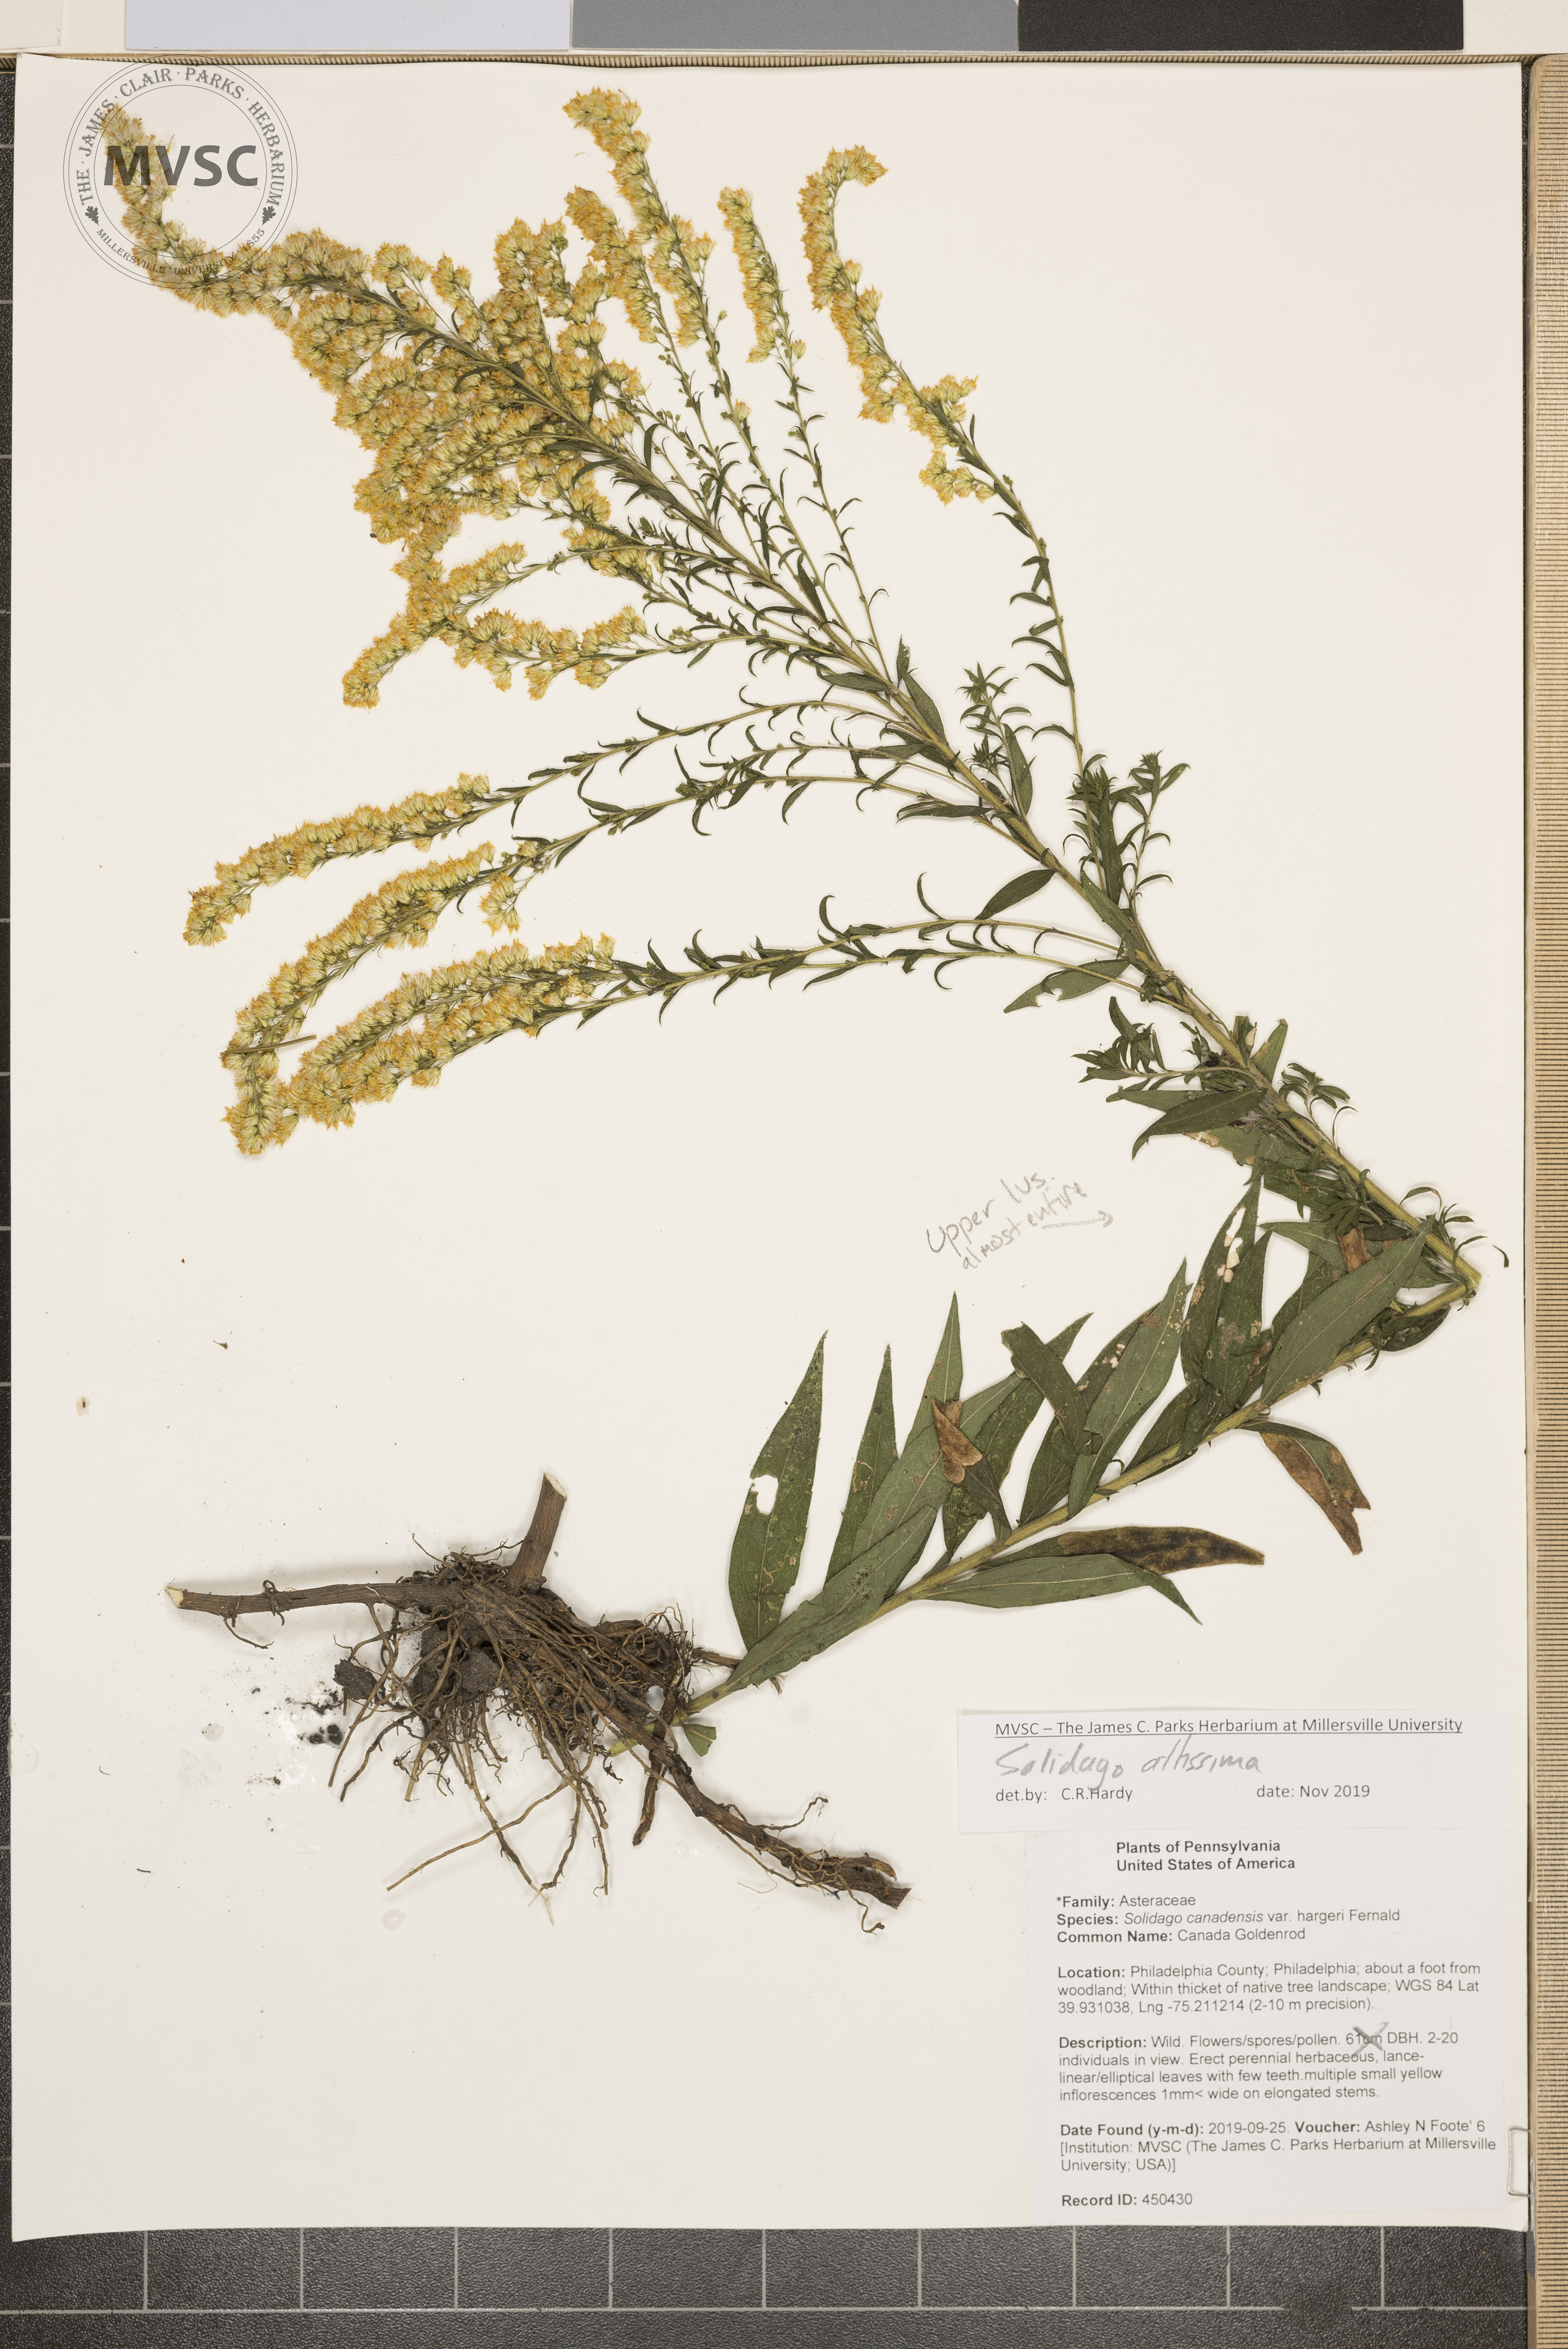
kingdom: Plantae
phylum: Tracheophyta
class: Magnoliopsida
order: Asterales
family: Asteraceae
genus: Solidago
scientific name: Solidago altissima
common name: late goldenrod
